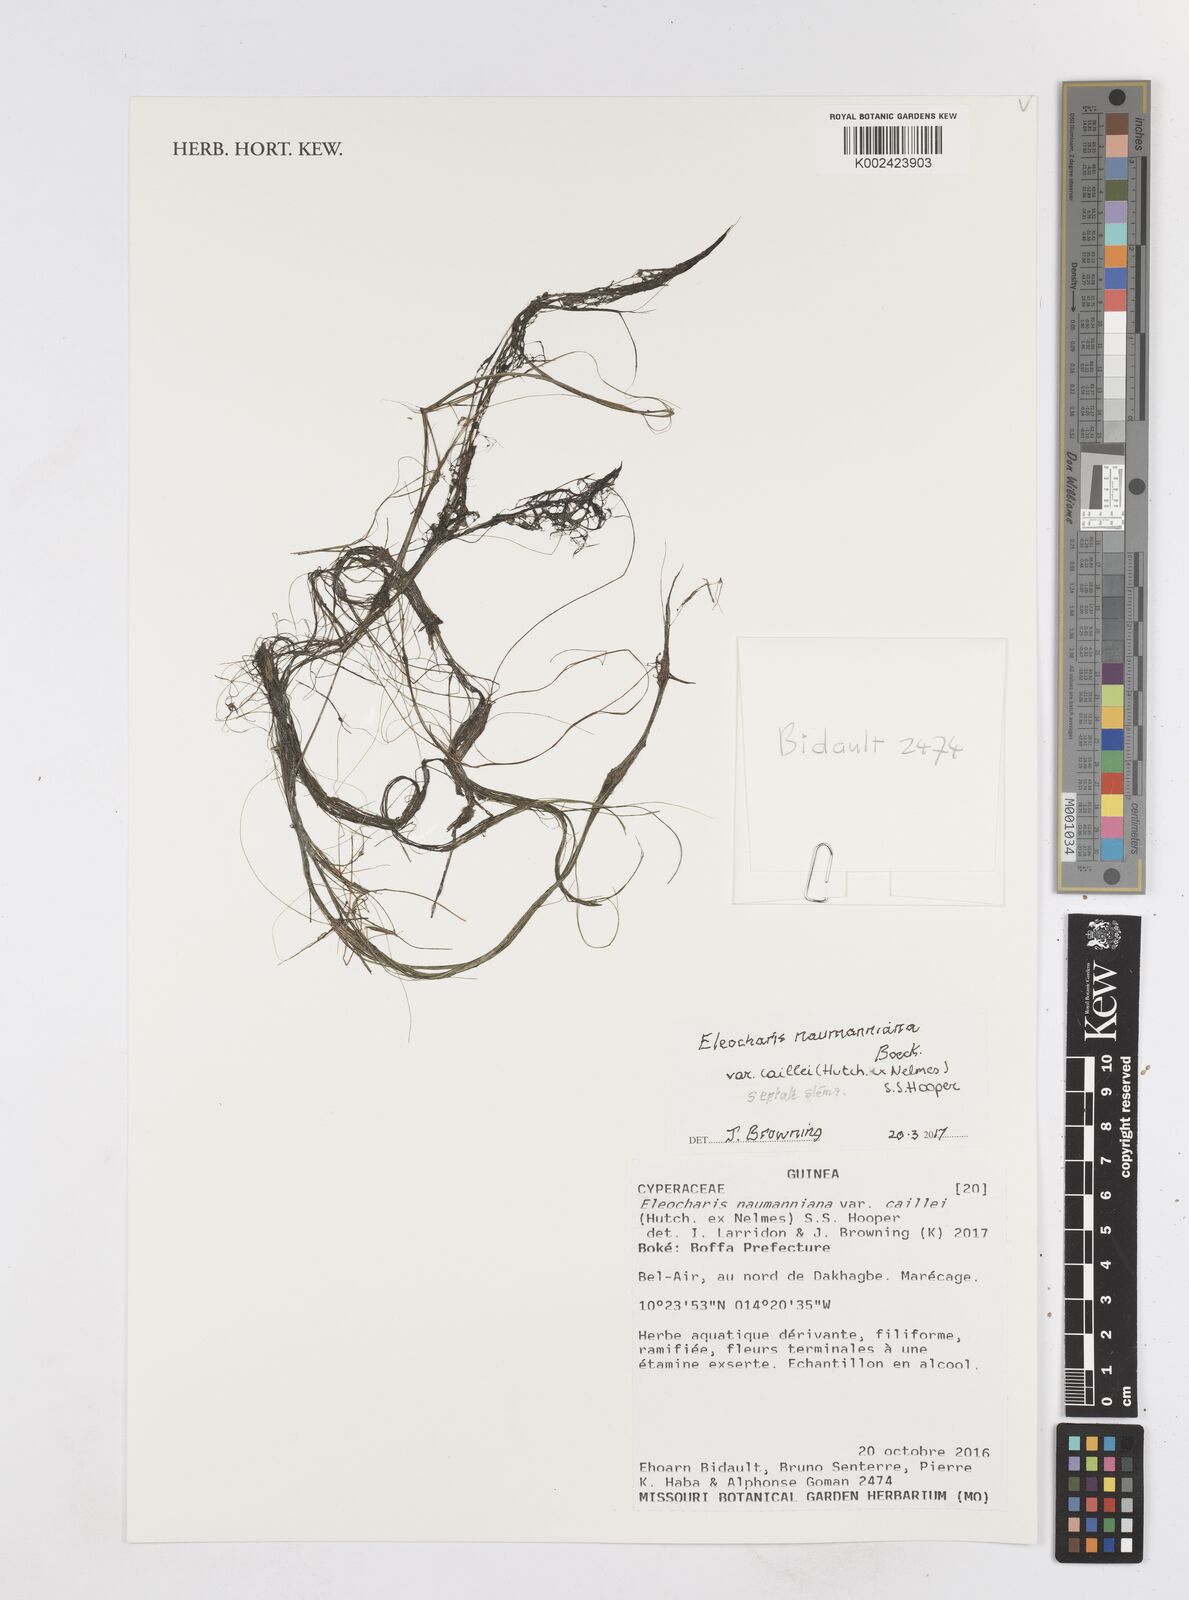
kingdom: Plantae
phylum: Tracheophyta
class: Liliopsida
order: Poales
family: Cyperaceae
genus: Eleocharis
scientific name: Eleocharis naumanniana
